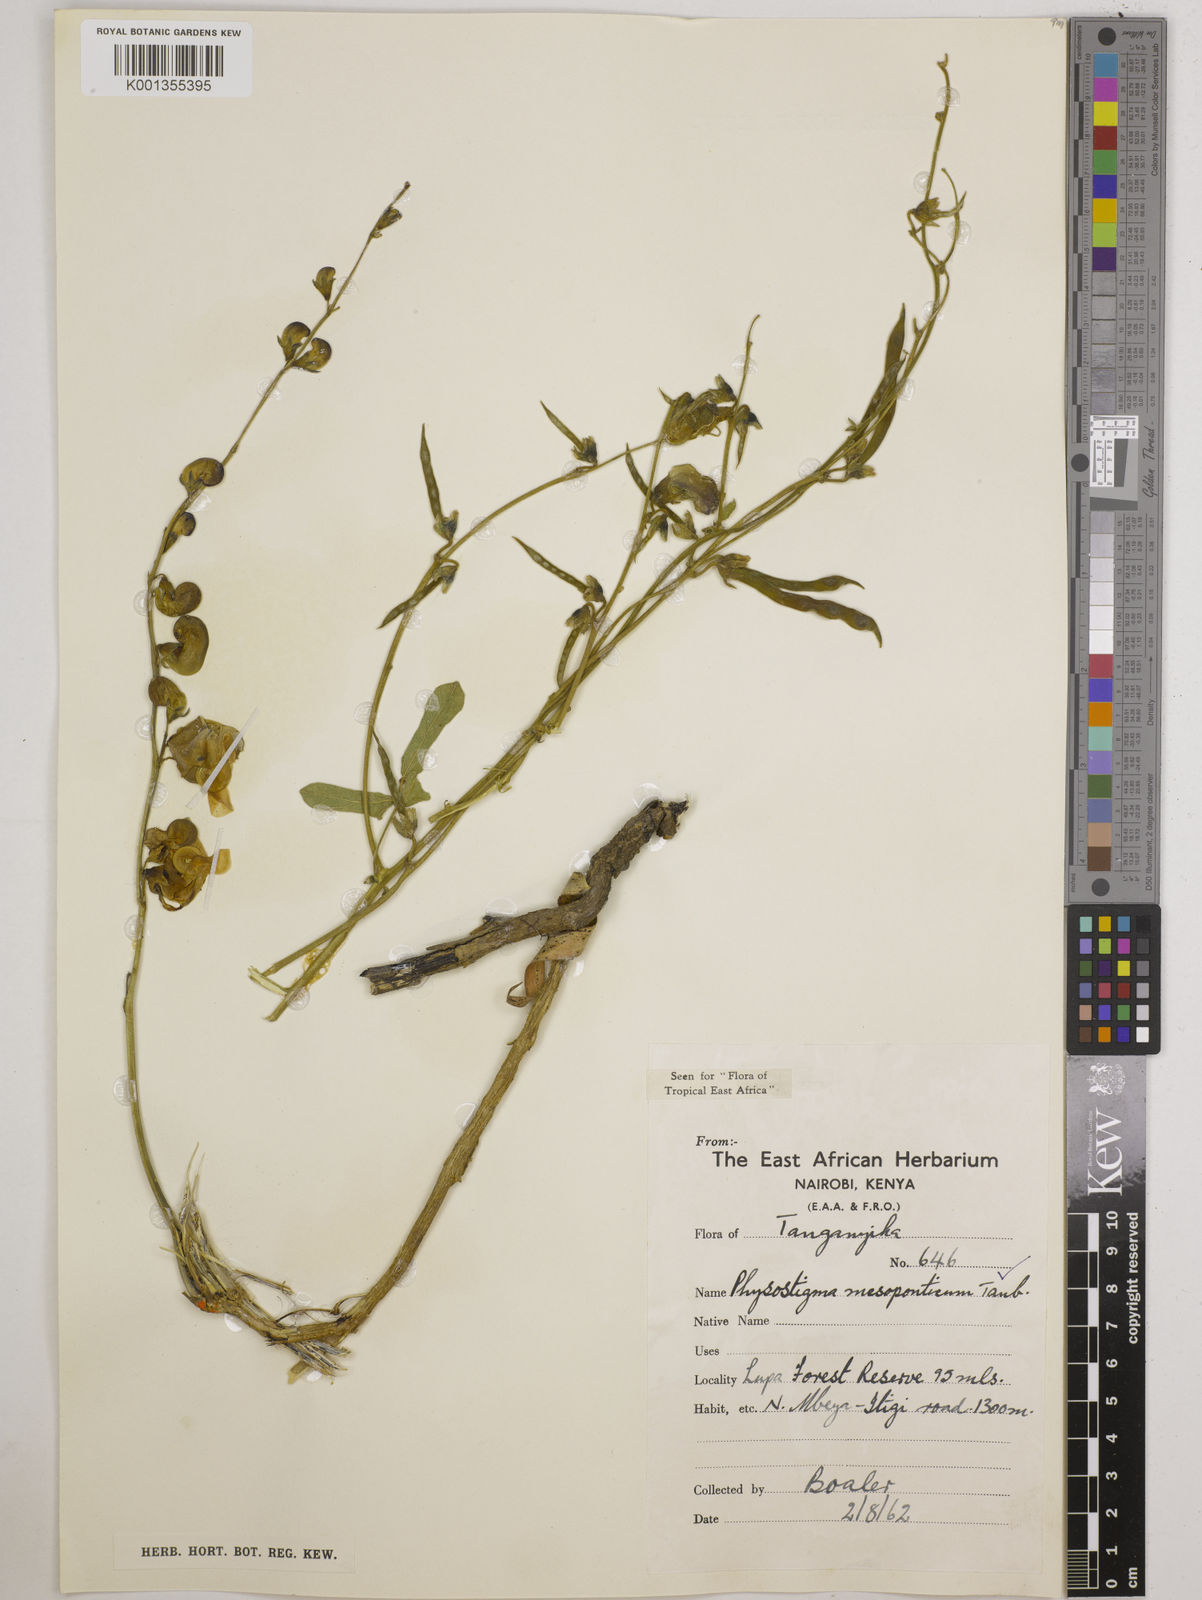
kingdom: Plantae
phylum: Tracheophyta
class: Magnoliopsida
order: Fabales
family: Fabaceae
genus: Physostigma
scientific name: Physostigma mesoponticum
